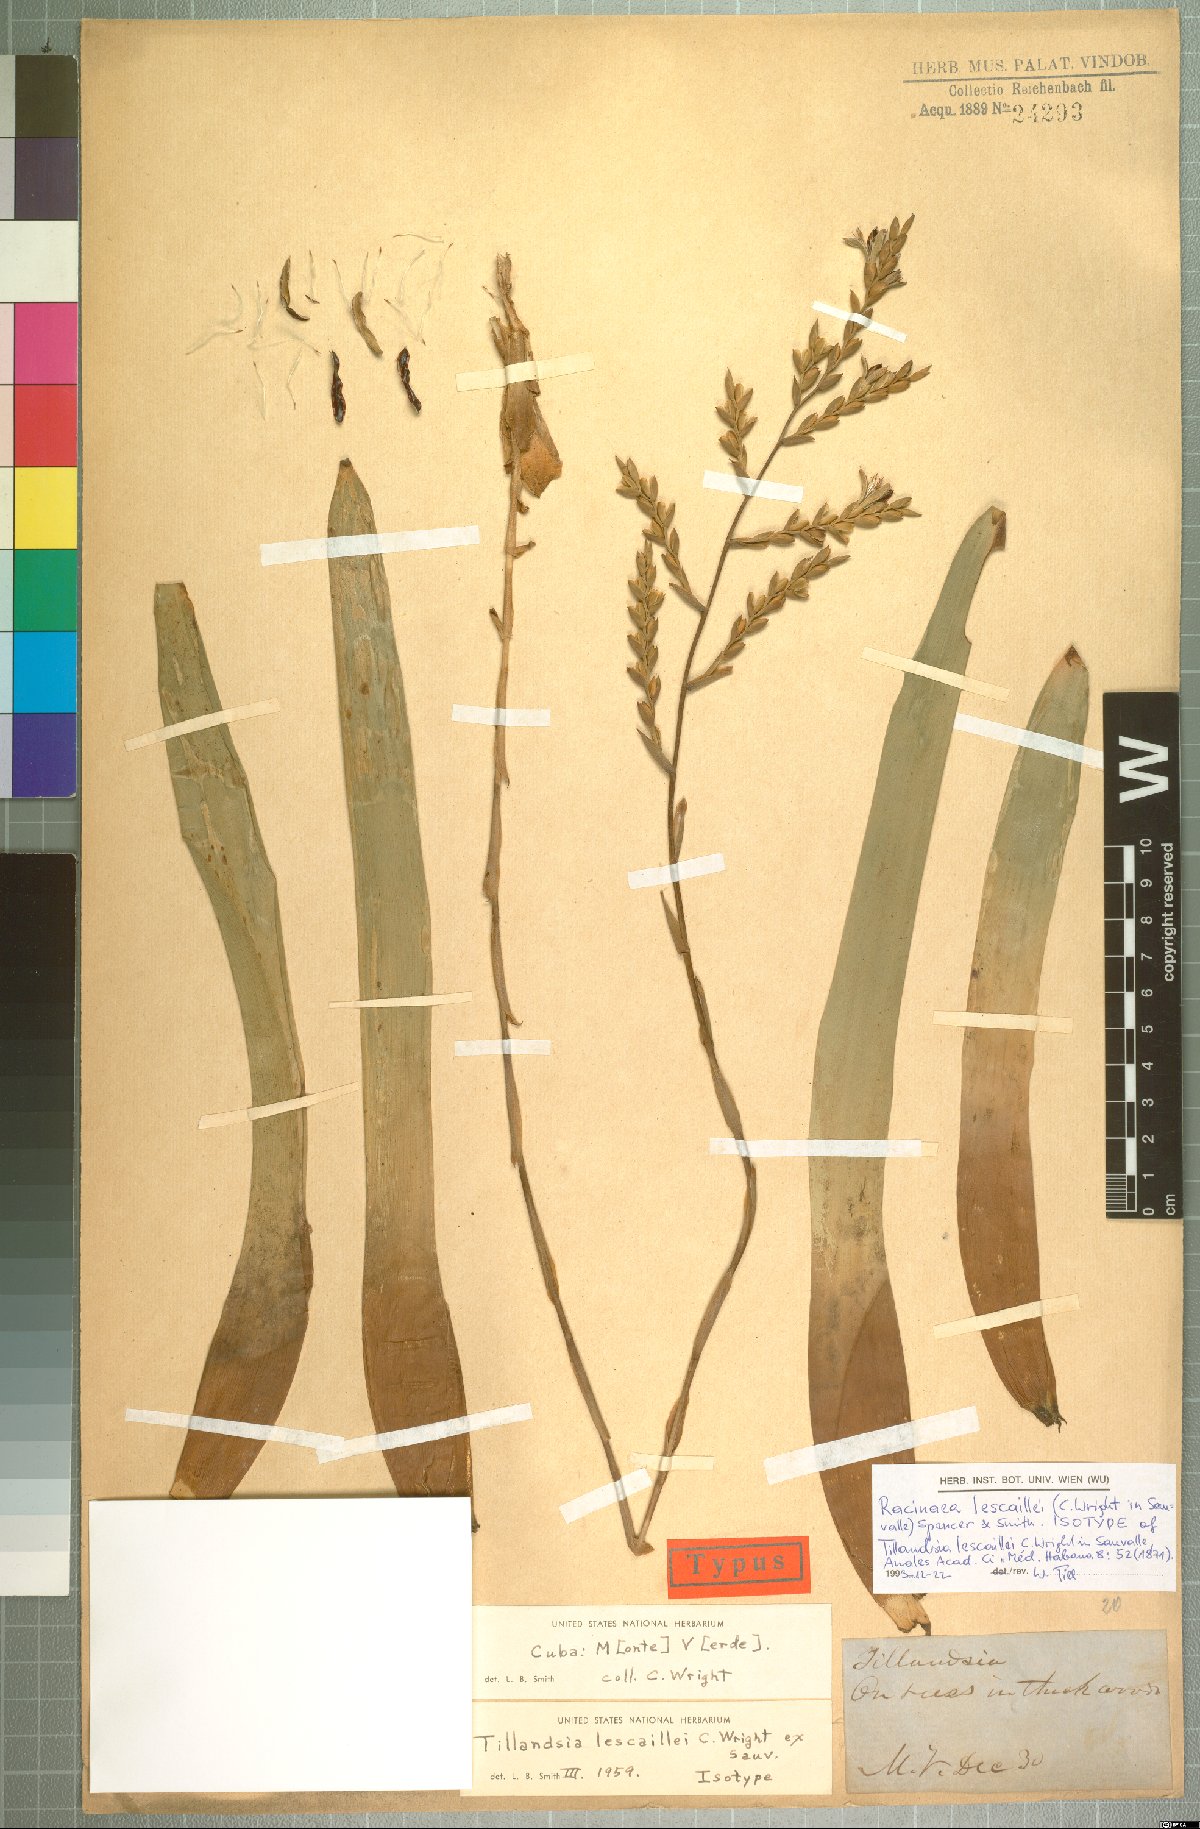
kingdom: Plantae
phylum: Tracheophyta
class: Liliopsida
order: Poales
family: Bromeliaceae
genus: Racinaea
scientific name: Racinaea lescaillei
